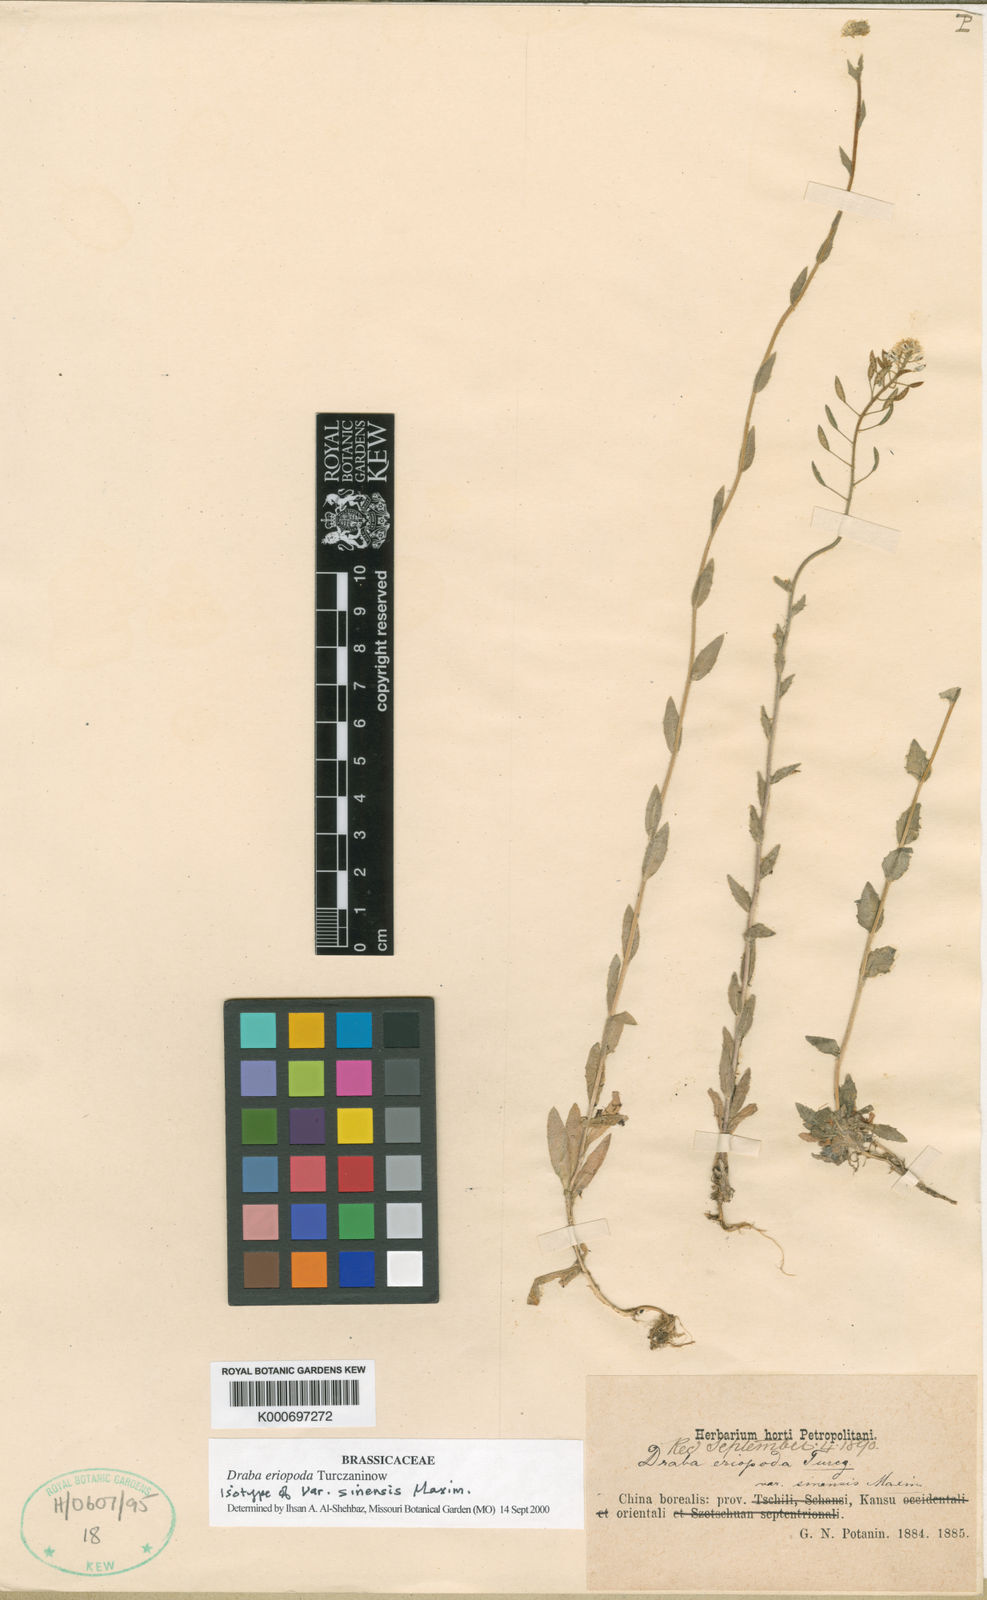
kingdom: Plantae
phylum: Tracheophyta
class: Magnoliopsida
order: Brassicales
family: Brassicaceae
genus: Draba
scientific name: Draba
